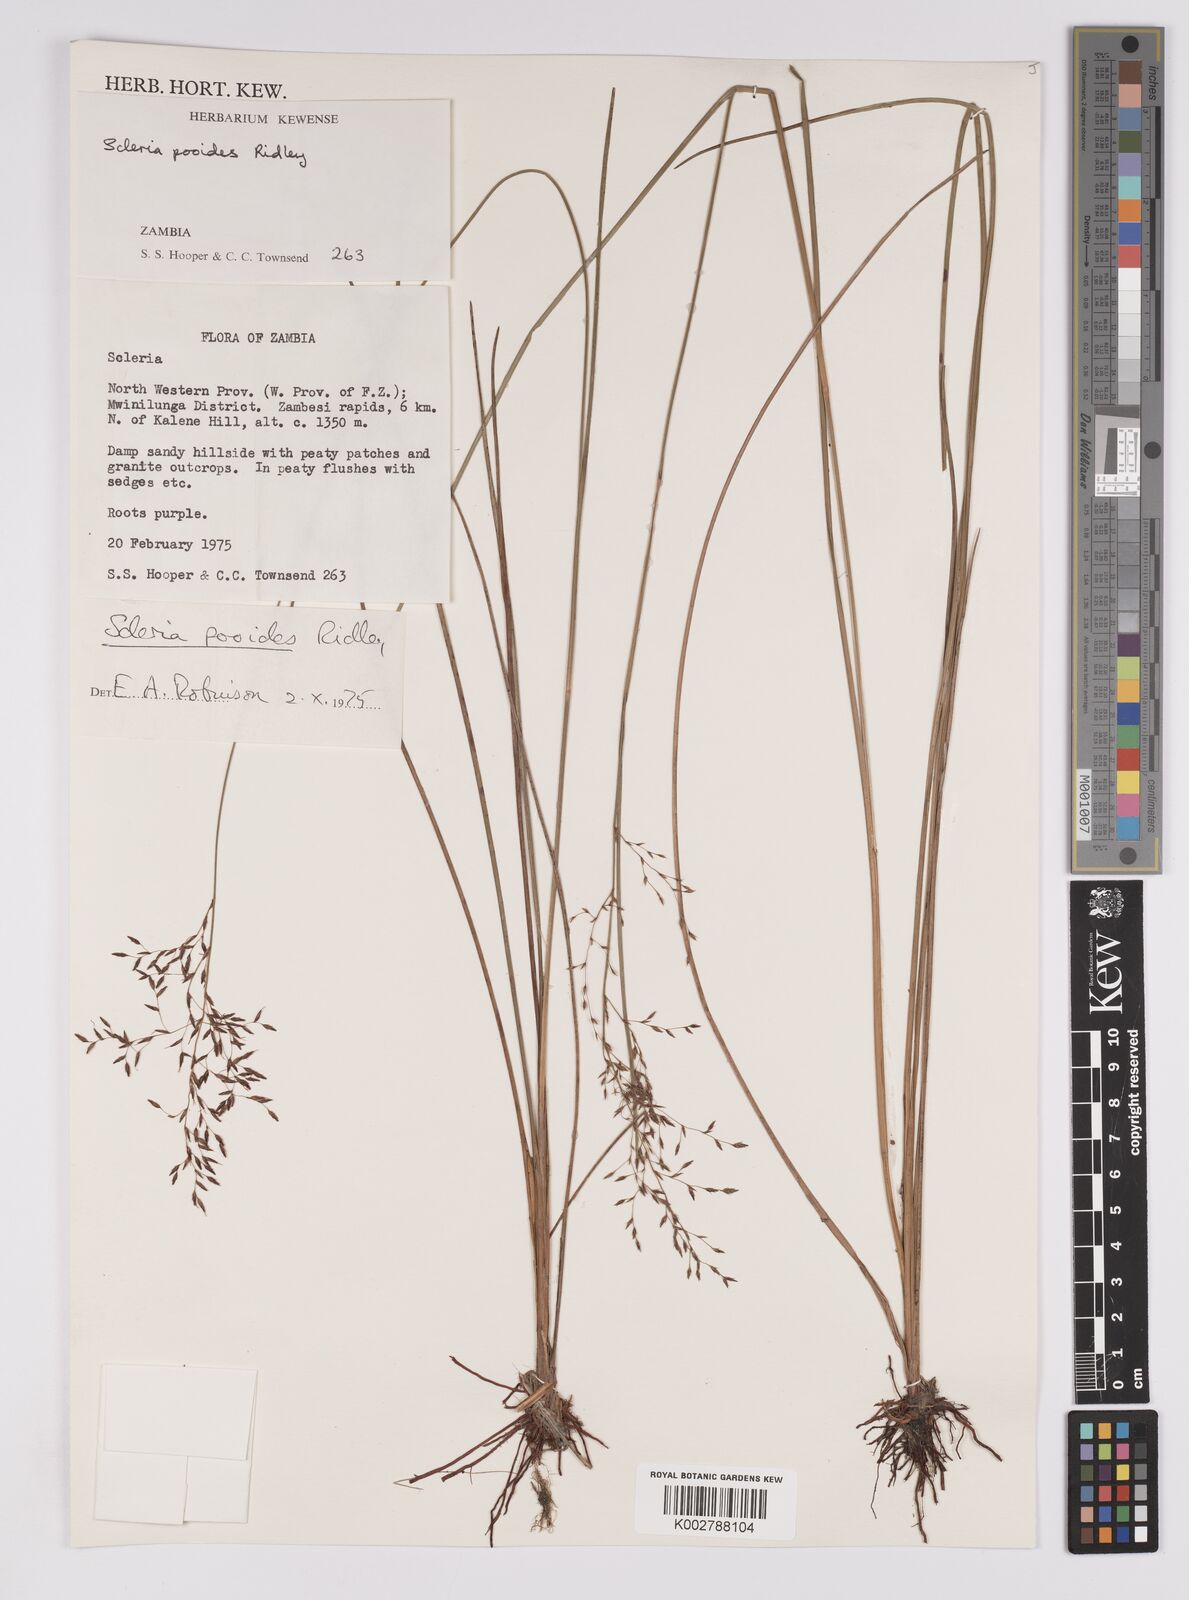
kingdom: Plantae
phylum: Tracheophyta
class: Liliopsida
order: Poales
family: Cyperaceae
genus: Scleria
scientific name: Scleria pooides
